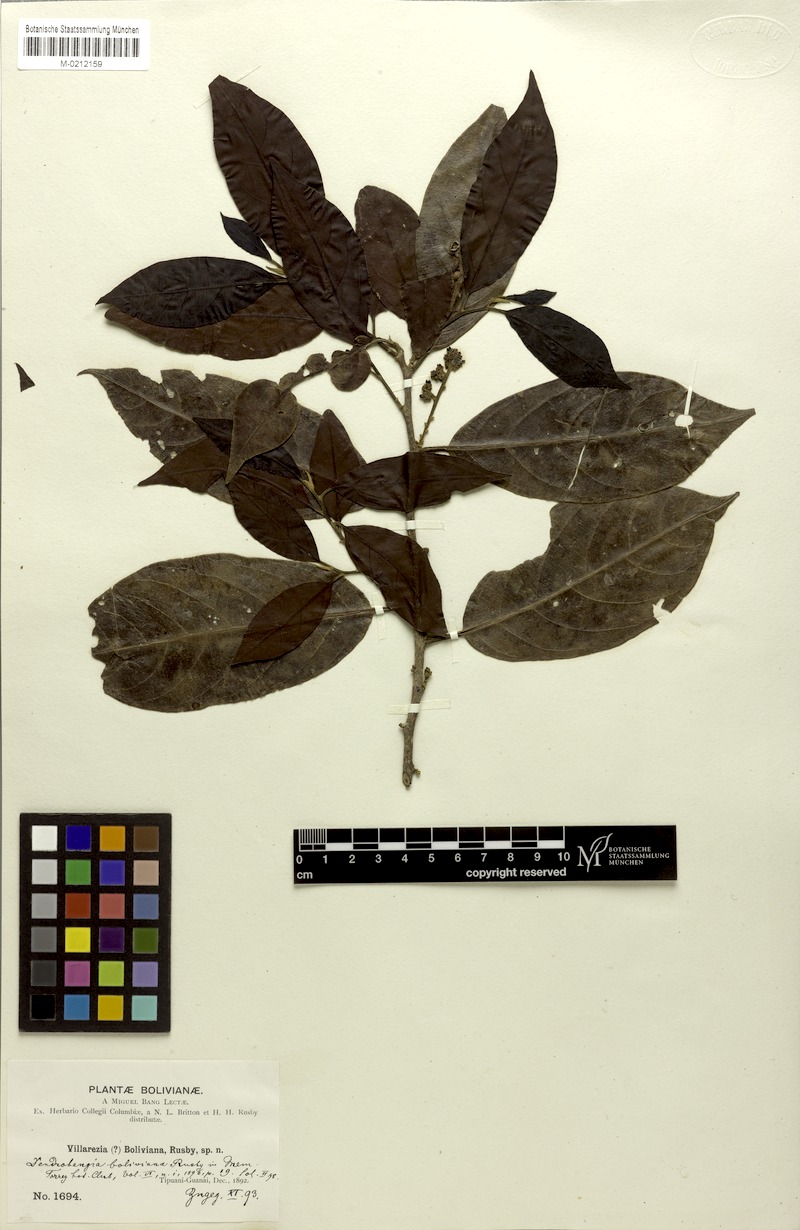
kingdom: Plantae
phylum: Tracheophyta
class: Magnoliopsida
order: Metteniusales
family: Metteniusaceae
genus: Dendrobangia
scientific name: Dendrobangia boliviana
